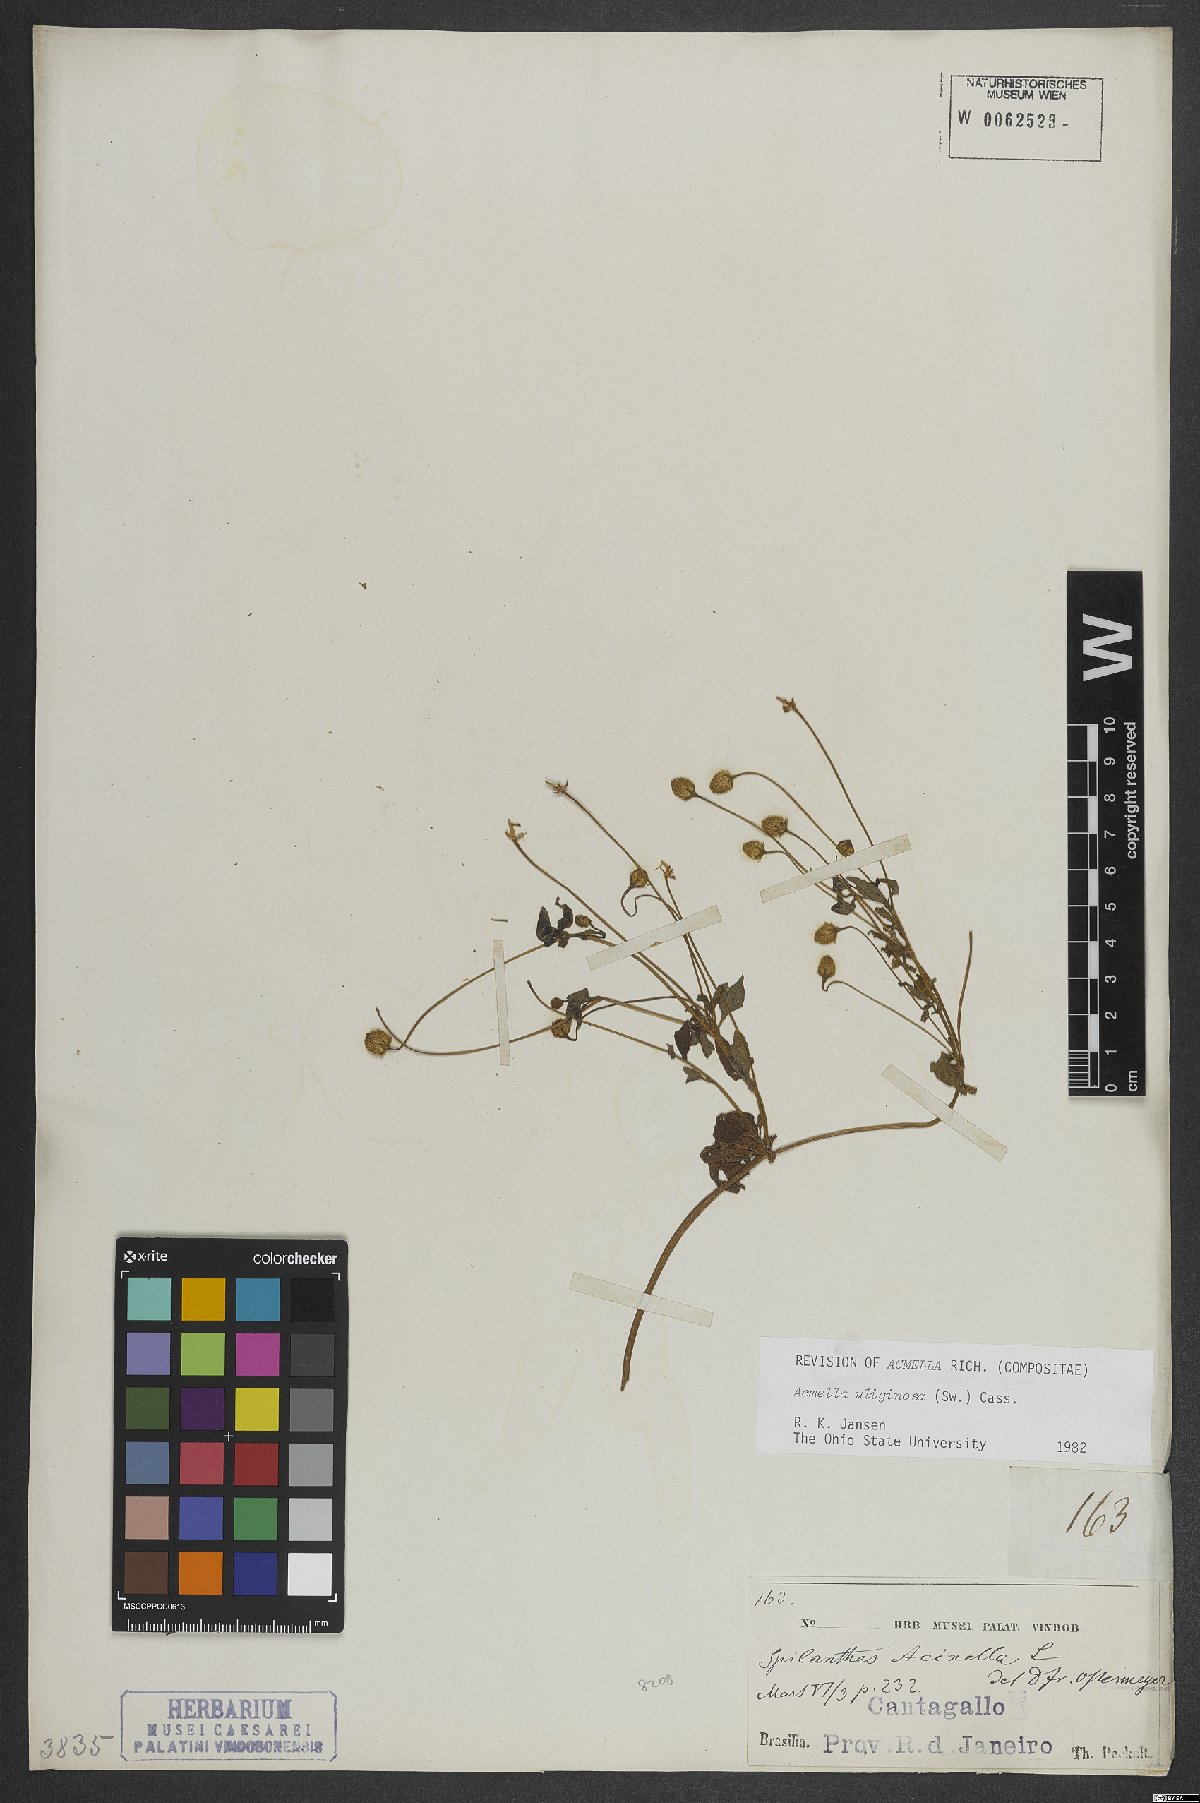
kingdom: Plantae
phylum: Tracheophyta
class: Magnoliopsida
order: Asterales
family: Asteraceae
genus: Acmella
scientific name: Acmella uliginosa
